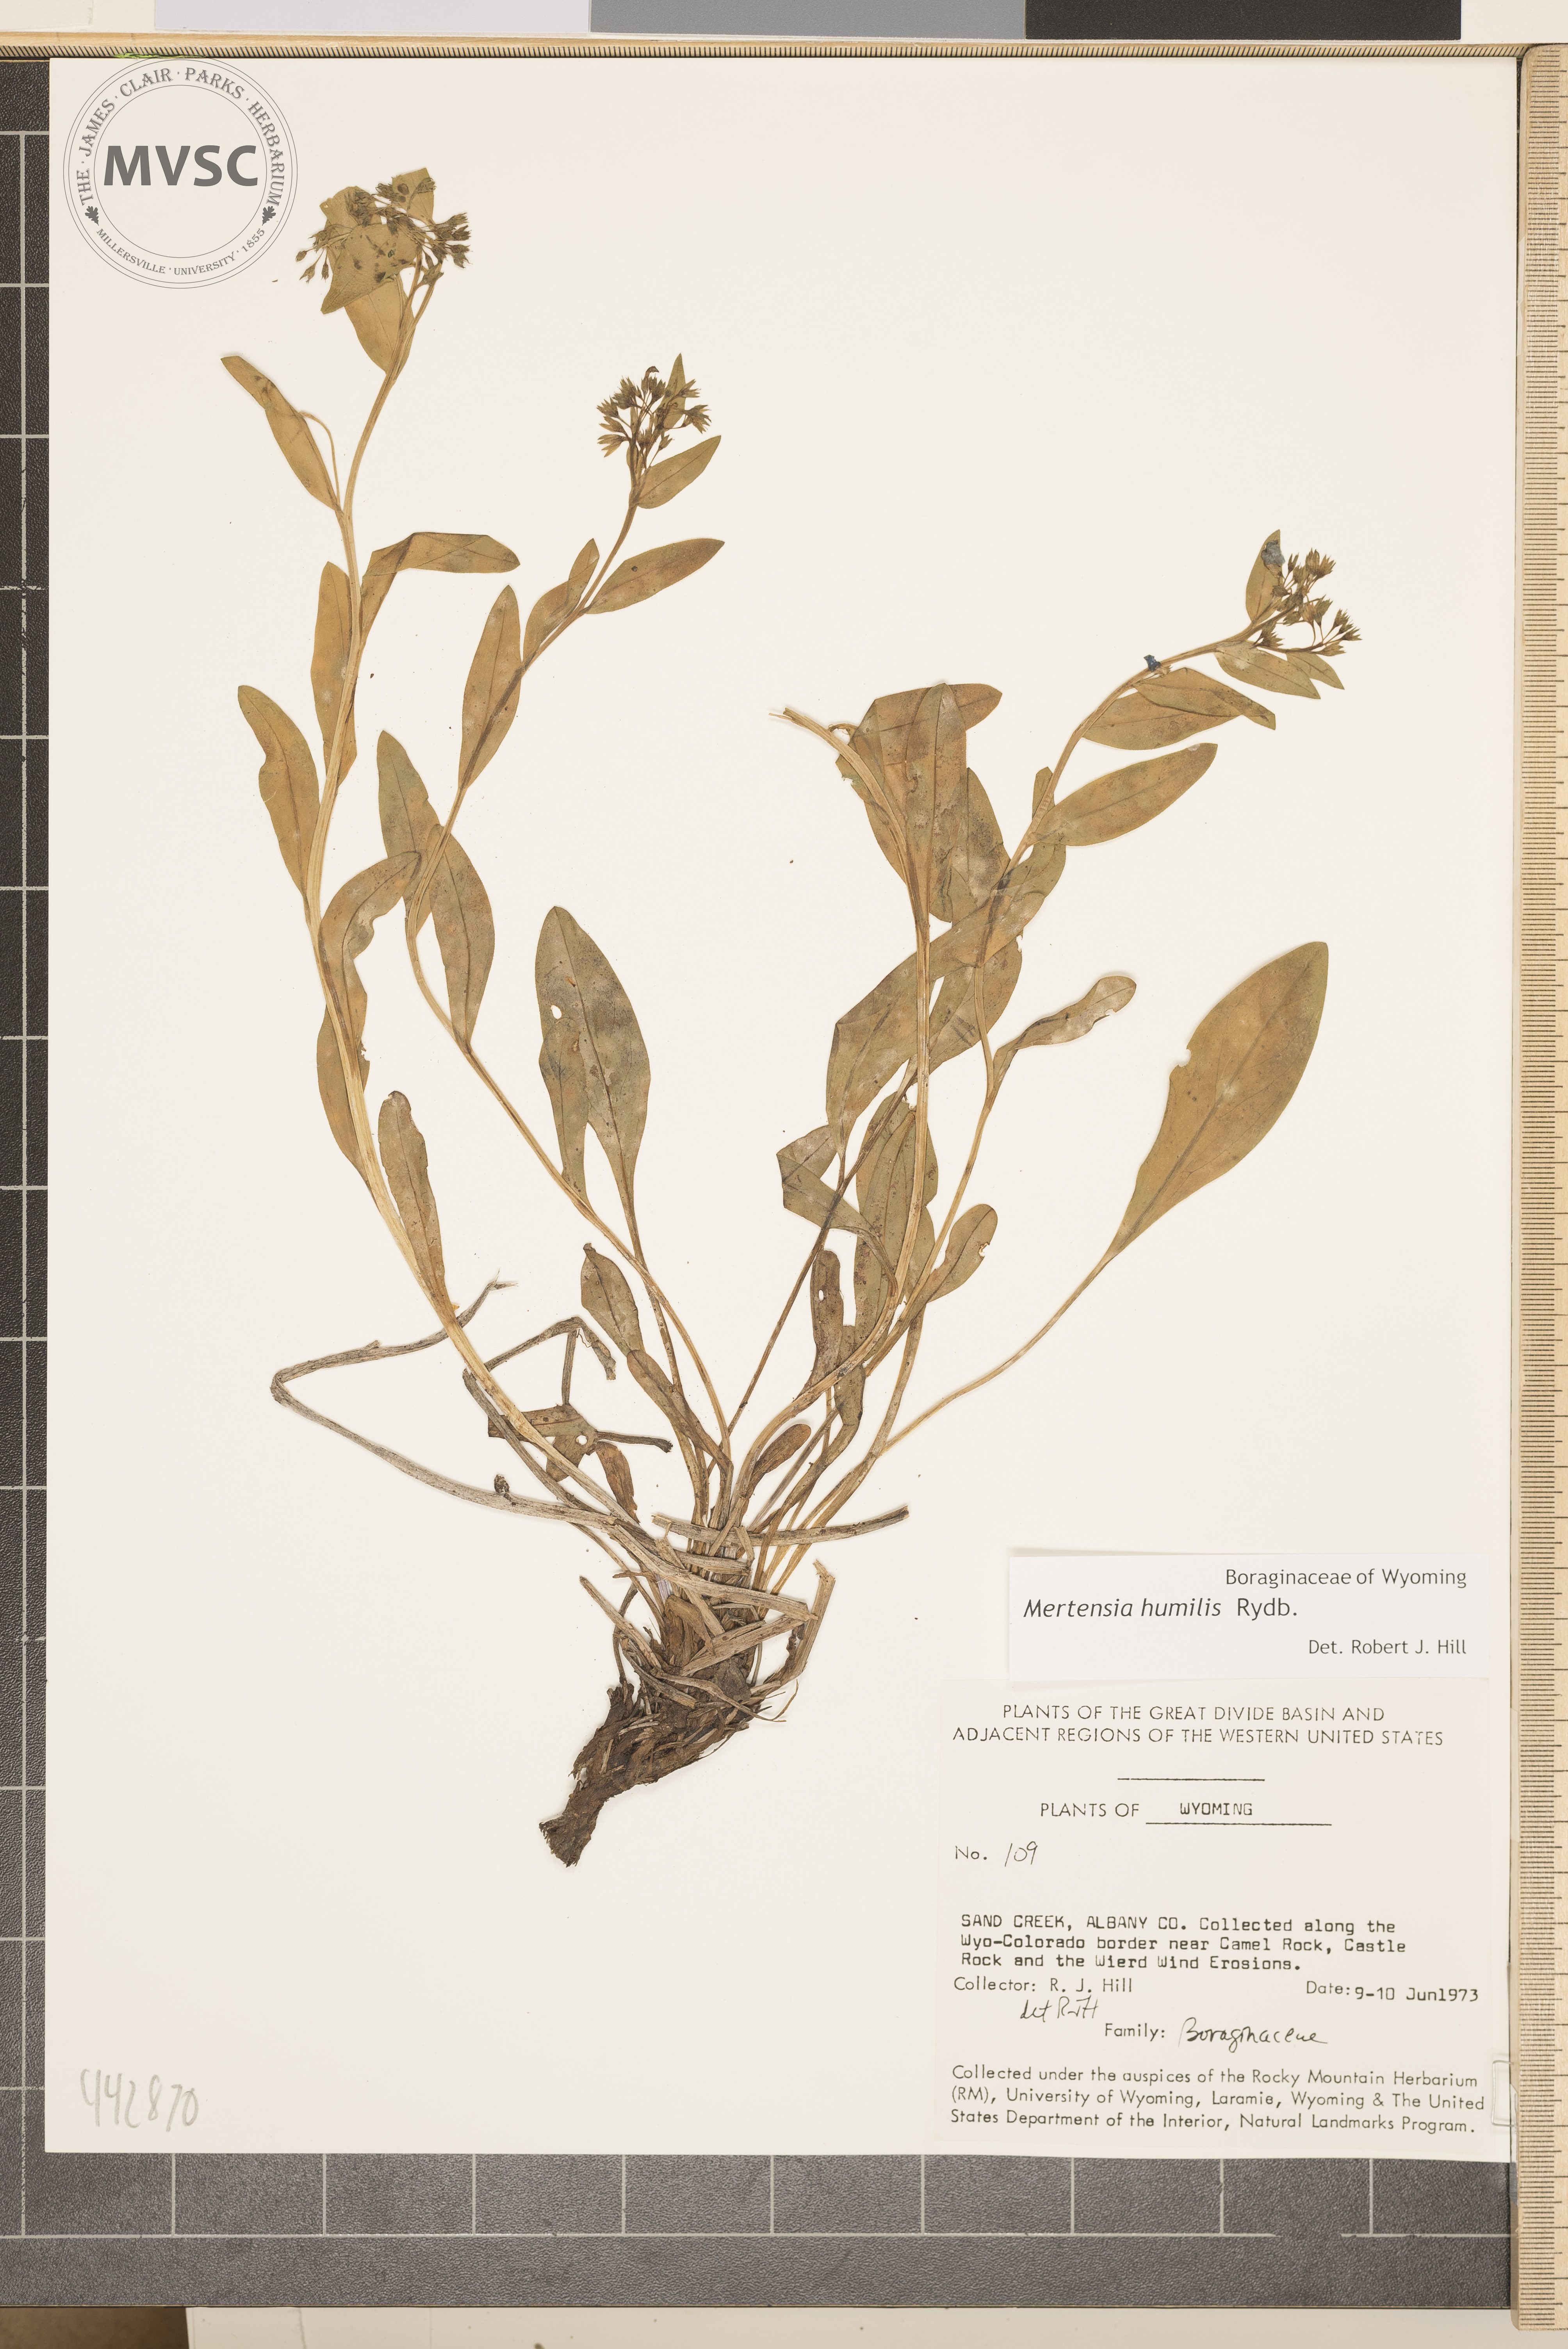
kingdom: Plantae
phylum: Tracheophyta
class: Magnoliopsida
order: Boraginales
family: Boraginaceae
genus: Mertensia
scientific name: Mertensia humilis
